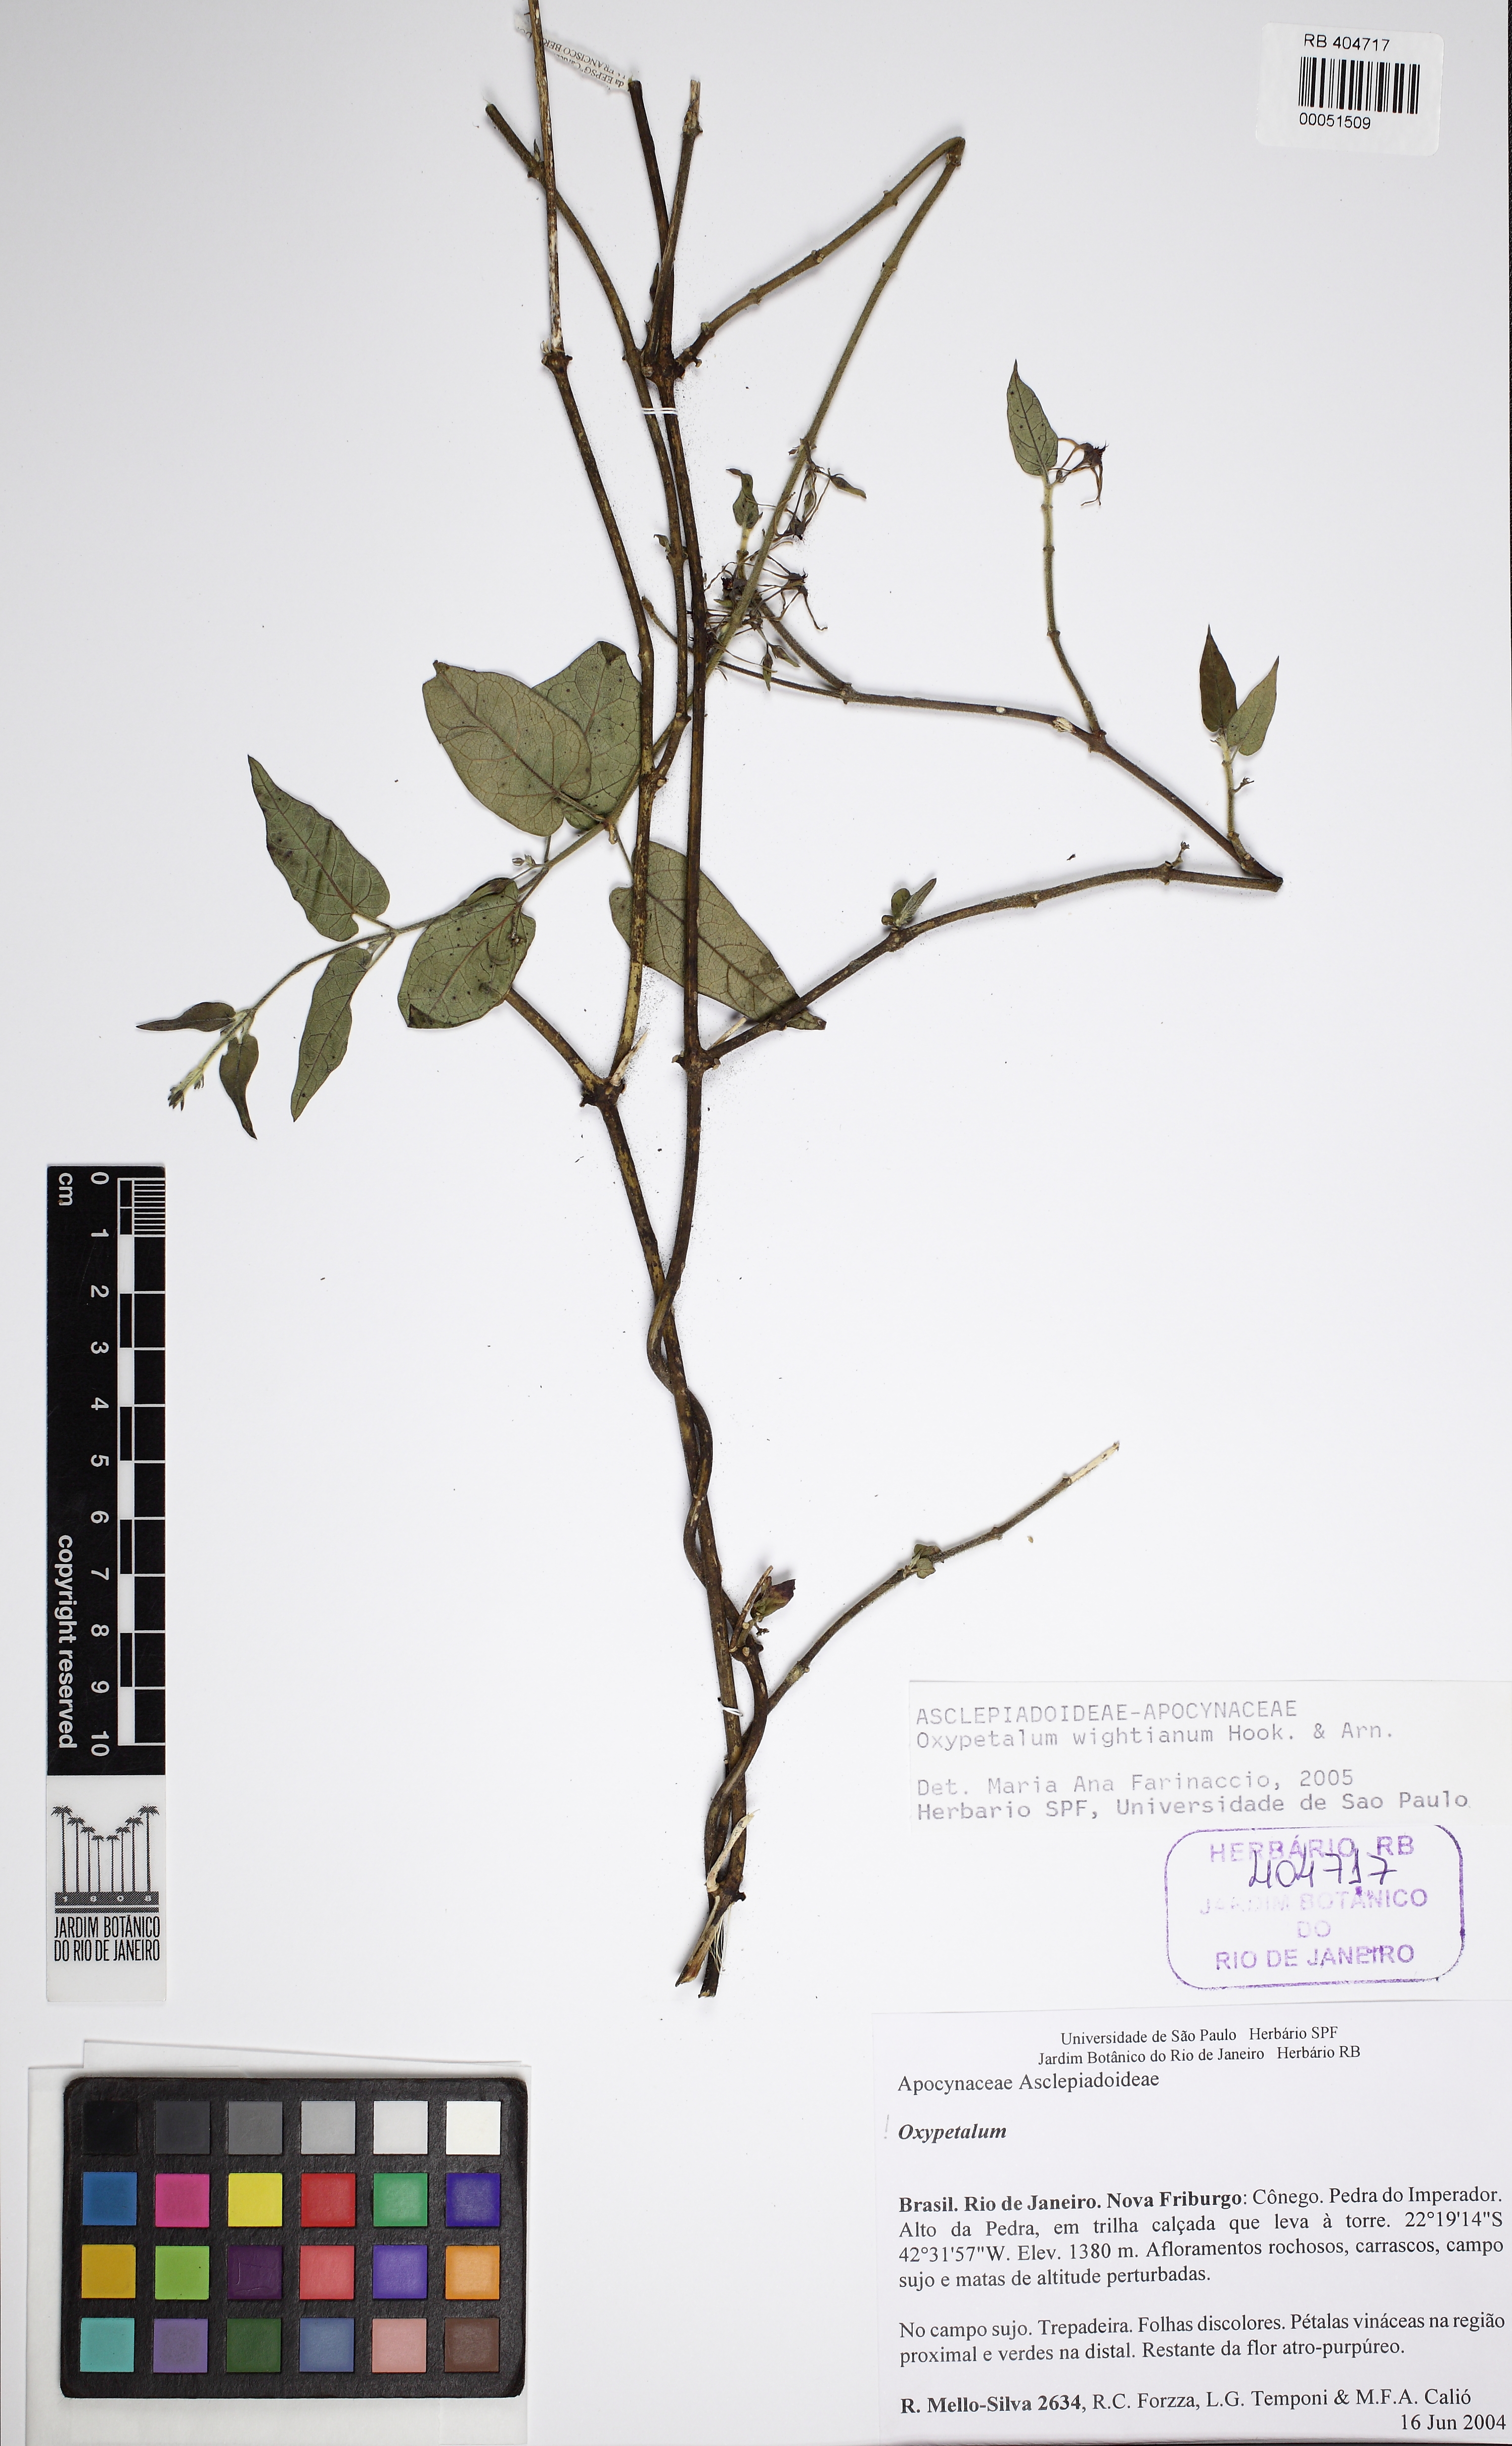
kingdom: Plantae
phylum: Tracheophyta
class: Magnoliopsida
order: Gentianales
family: Apocynaceae
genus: Oxypetalum
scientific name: Oxypetalum wightianum
